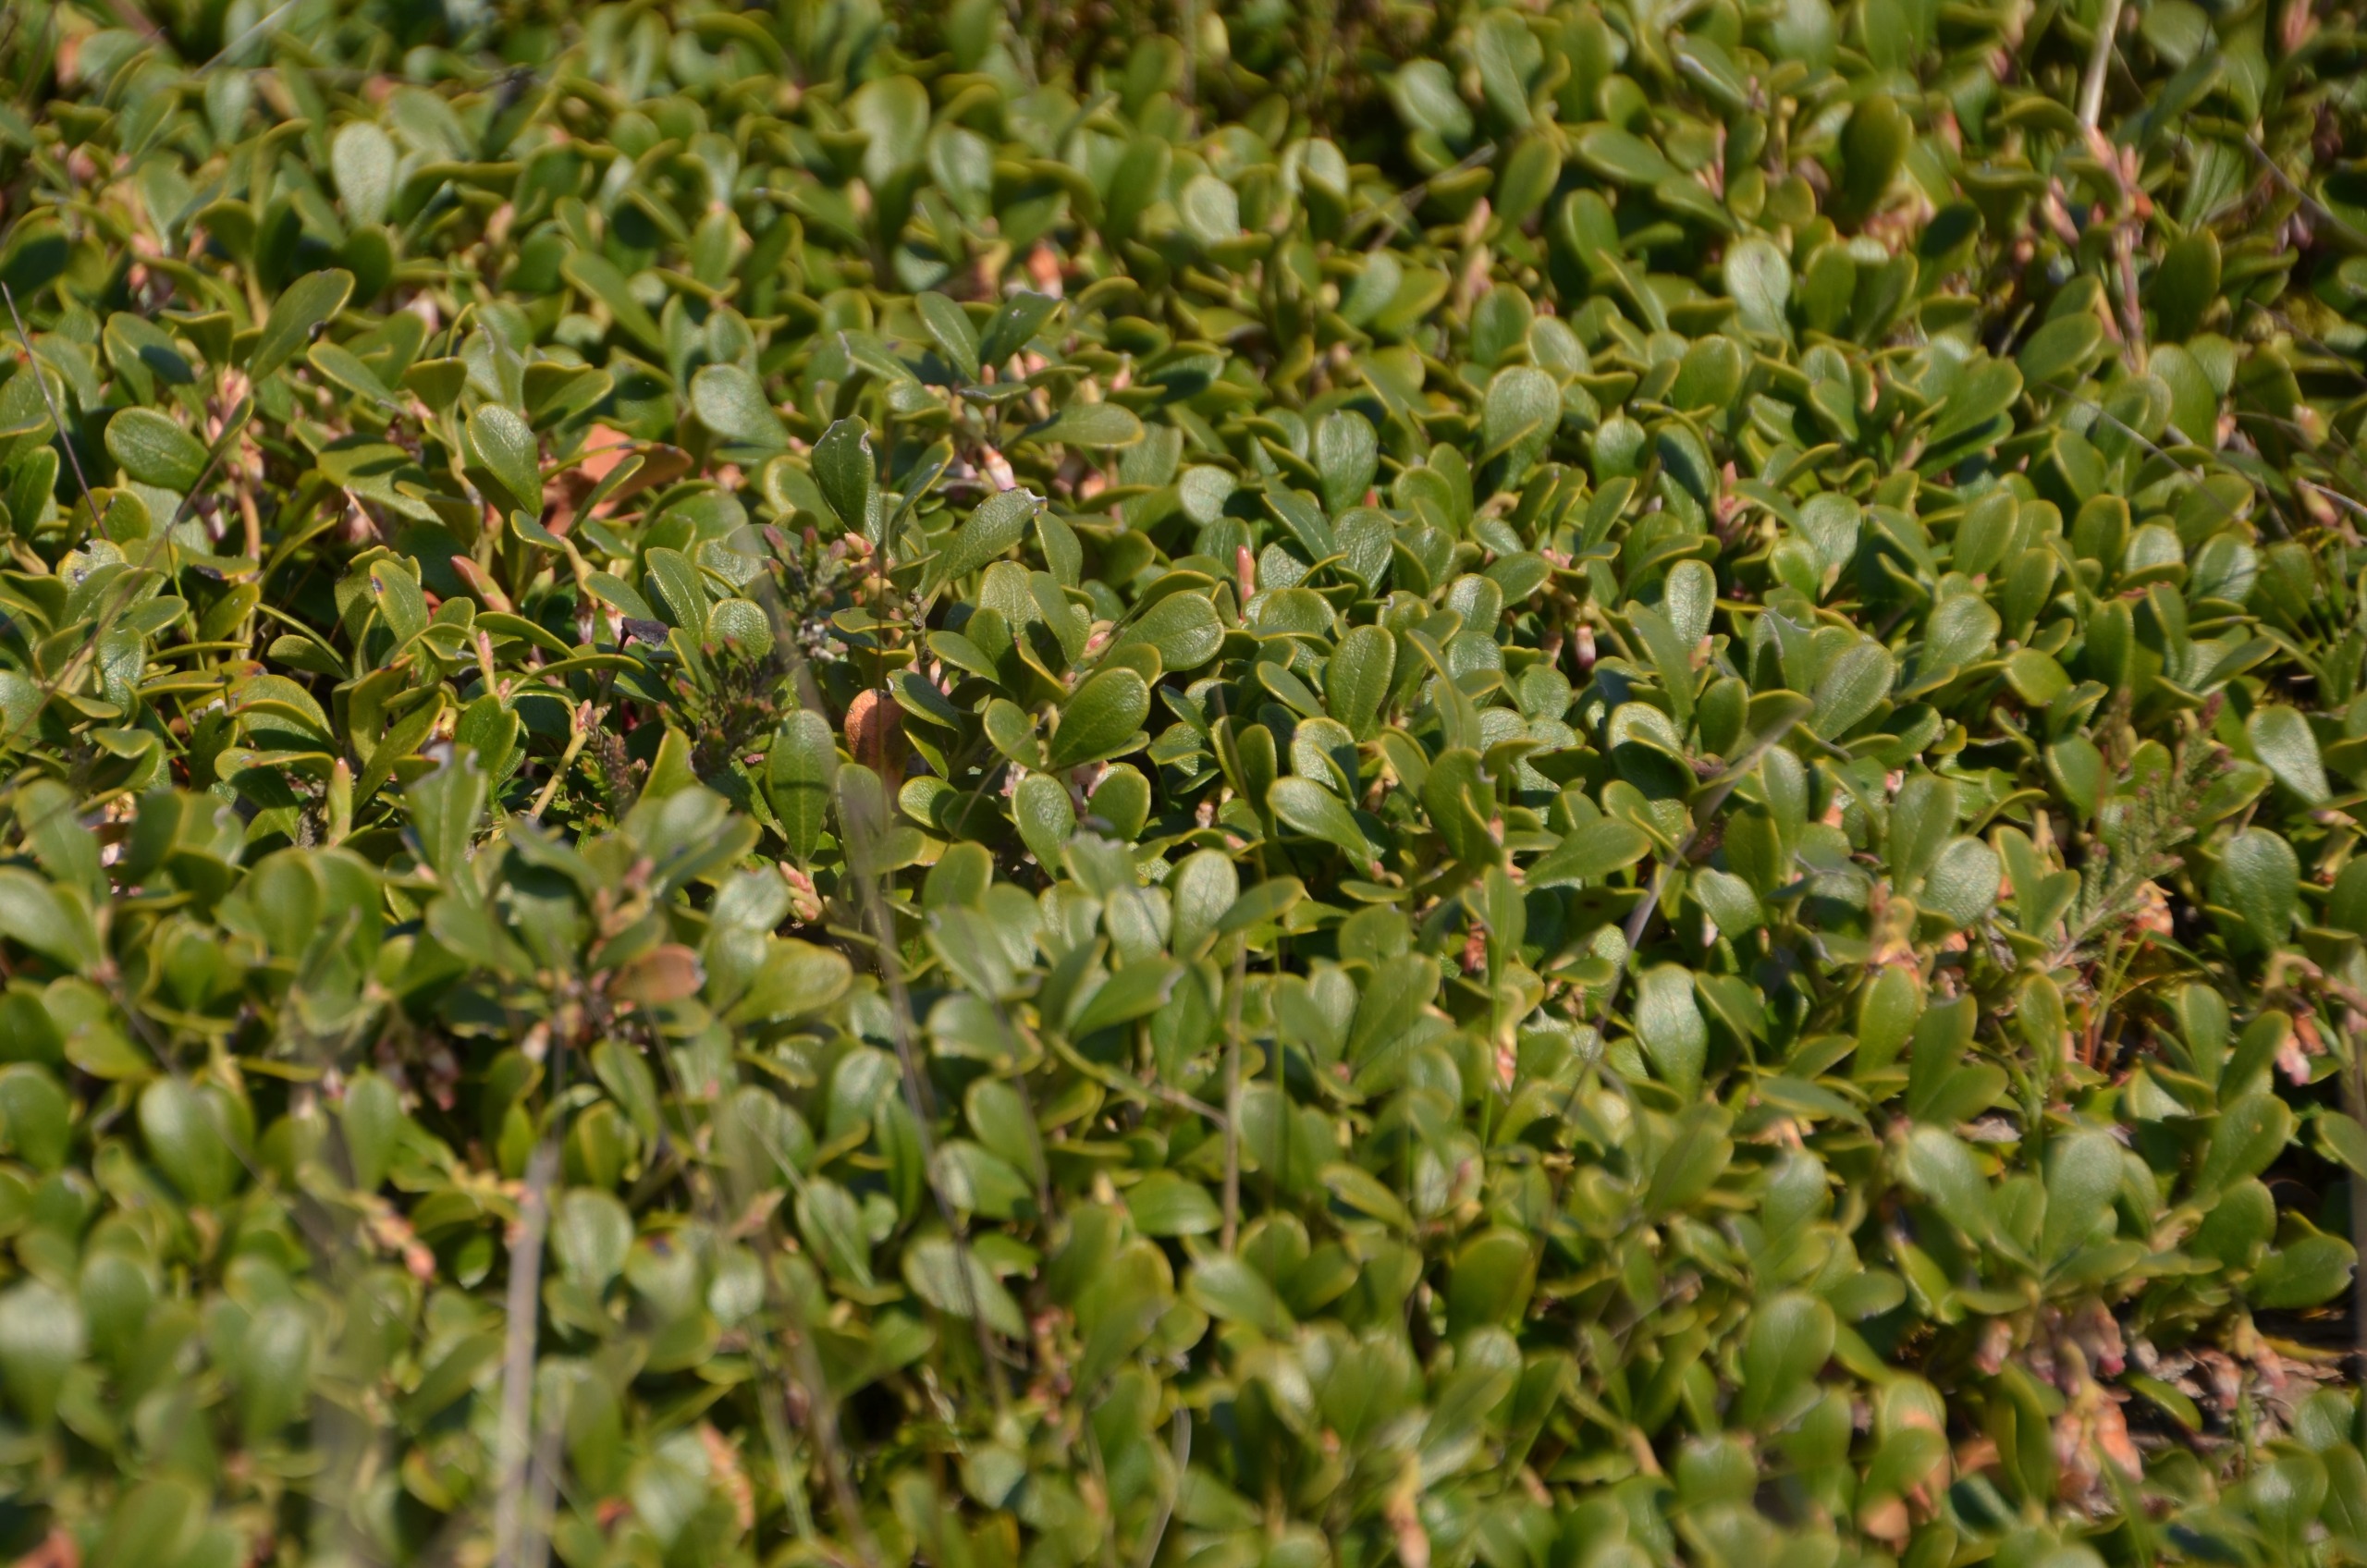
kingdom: Plantae
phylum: Tracheophyta
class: Magnoliopsida
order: Ericales
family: Ericaceae
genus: Arctostaphylos
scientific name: Arctostaphylos uva-ursi
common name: Hede-melbærris
